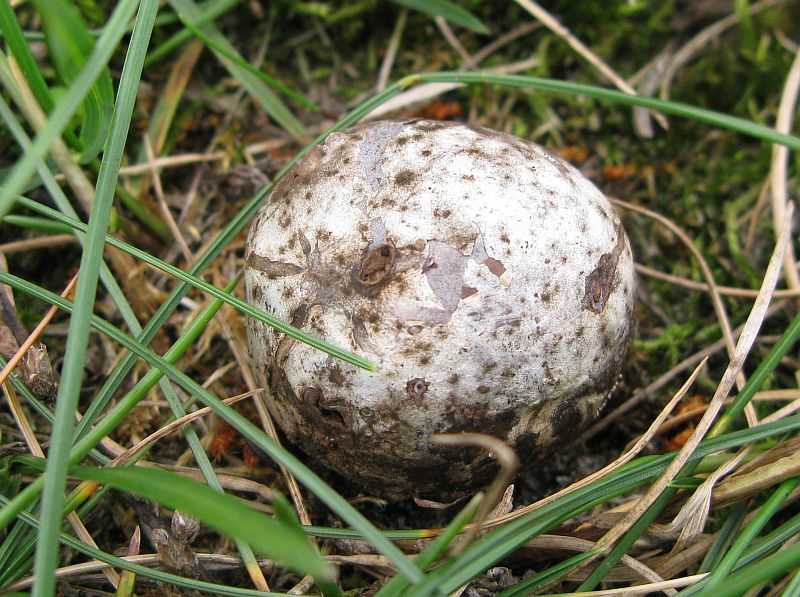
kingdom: Fungi
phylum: Basidiomycota
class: Agaricomycetes
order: Agaricales
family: Lycoperdaceae
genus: Bovista
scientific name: Bovista plumbea
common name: blygrå bovist
